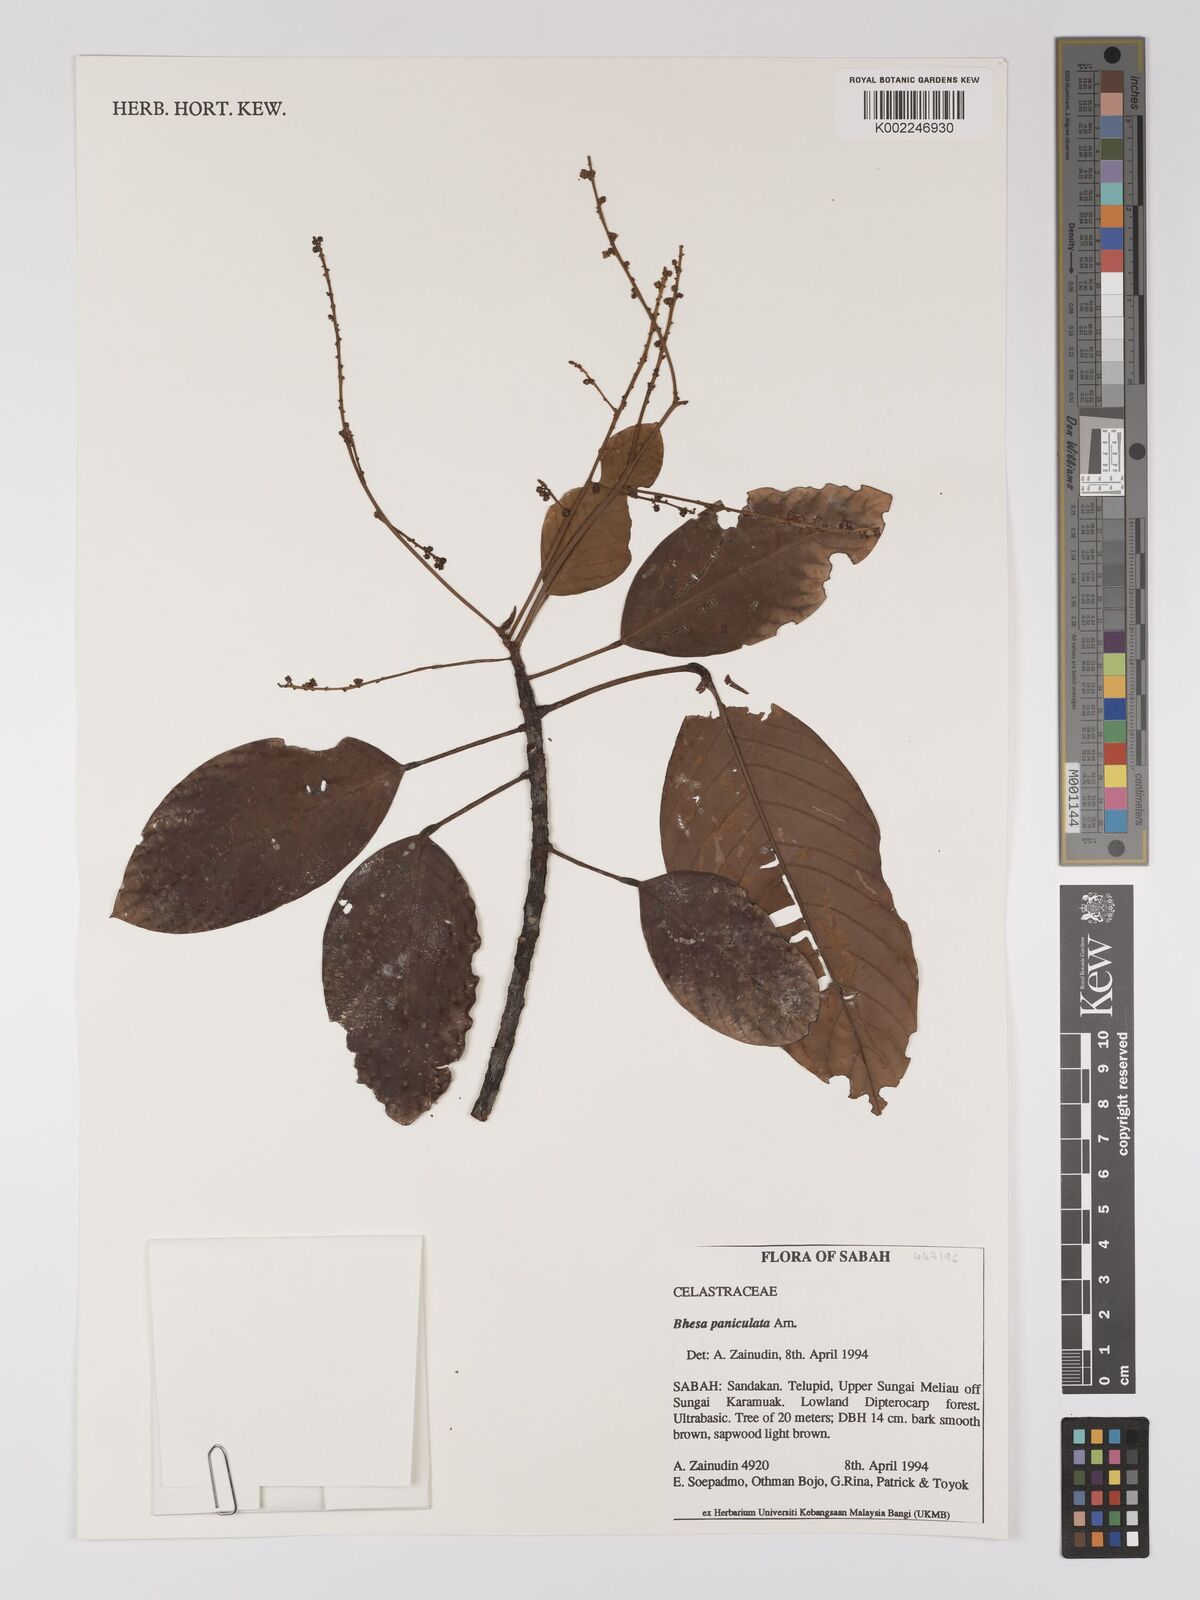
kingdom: Plantae
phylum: Tracheophyta
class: Magnoliopsida
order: Malpighiales
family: Centroplacaceae
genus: Bhesa
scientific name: Bhesa paniculata
